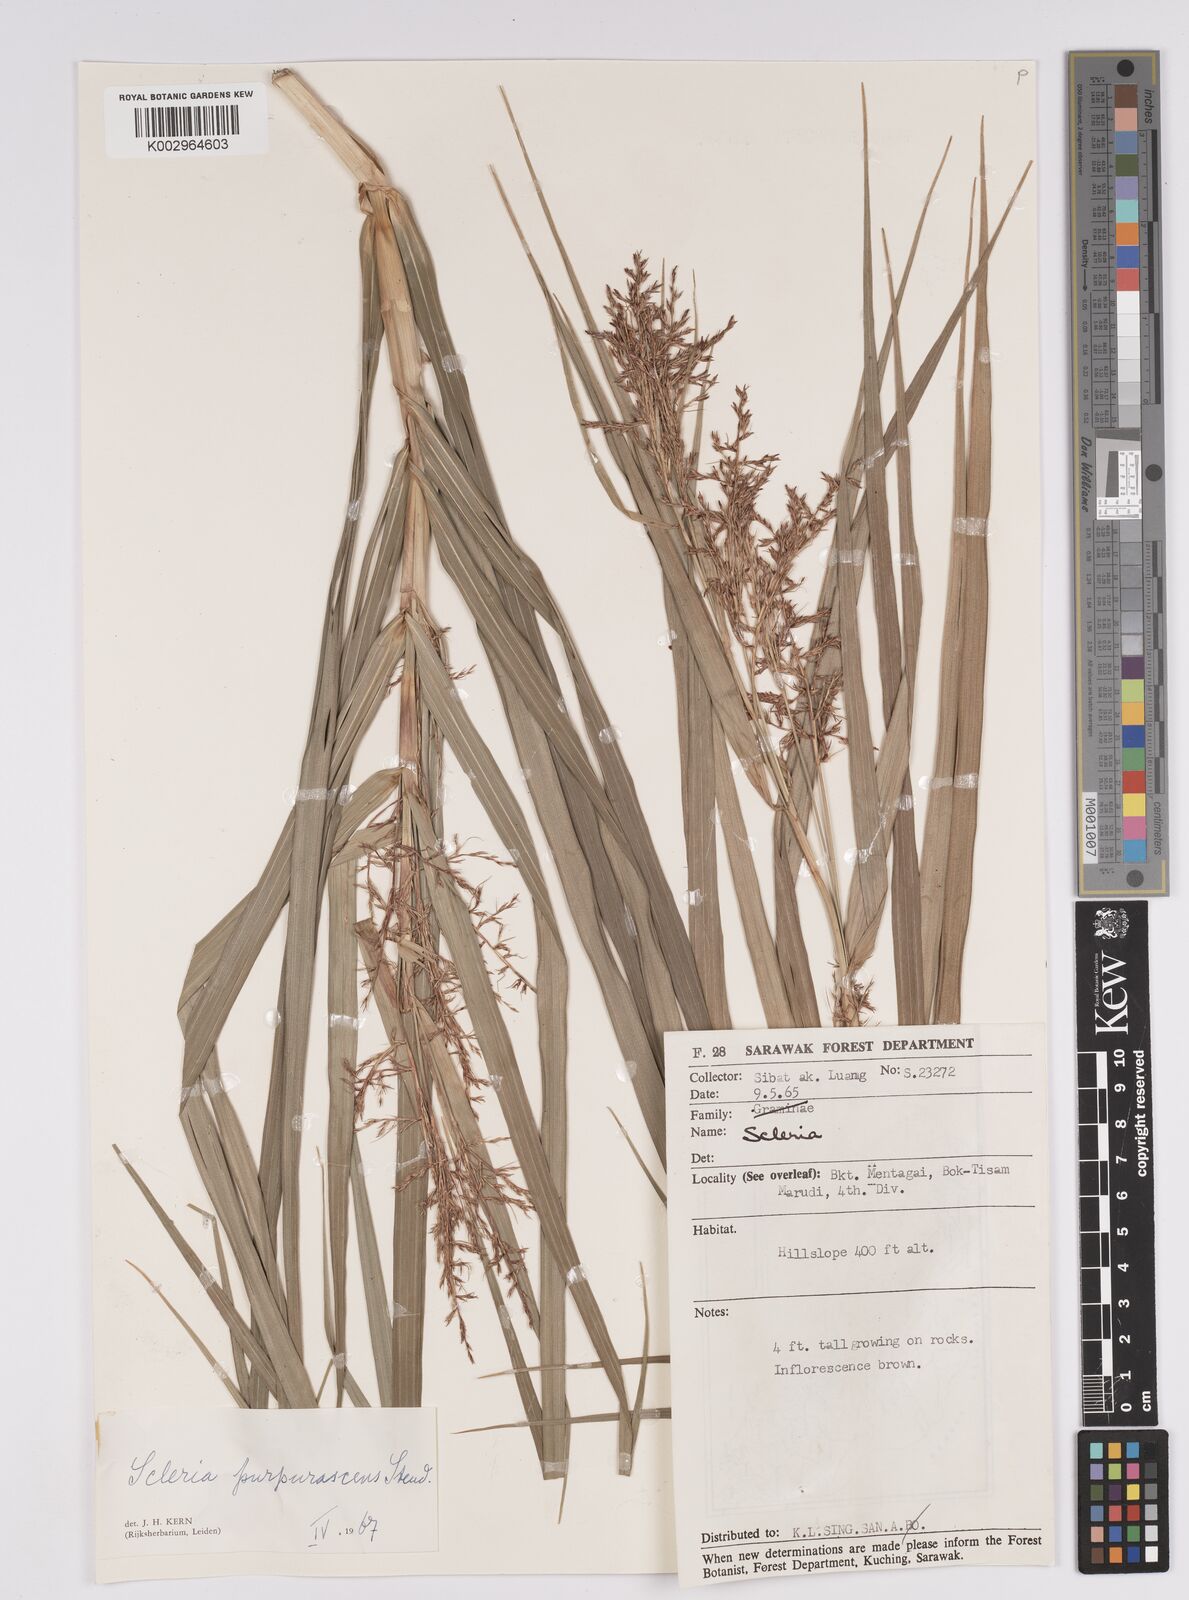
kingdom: Plantae
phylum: Tracheophyta
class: Liliopsida
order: Poales
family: Cyperaceae
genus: Scleria
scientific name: Scleria purpurascens
